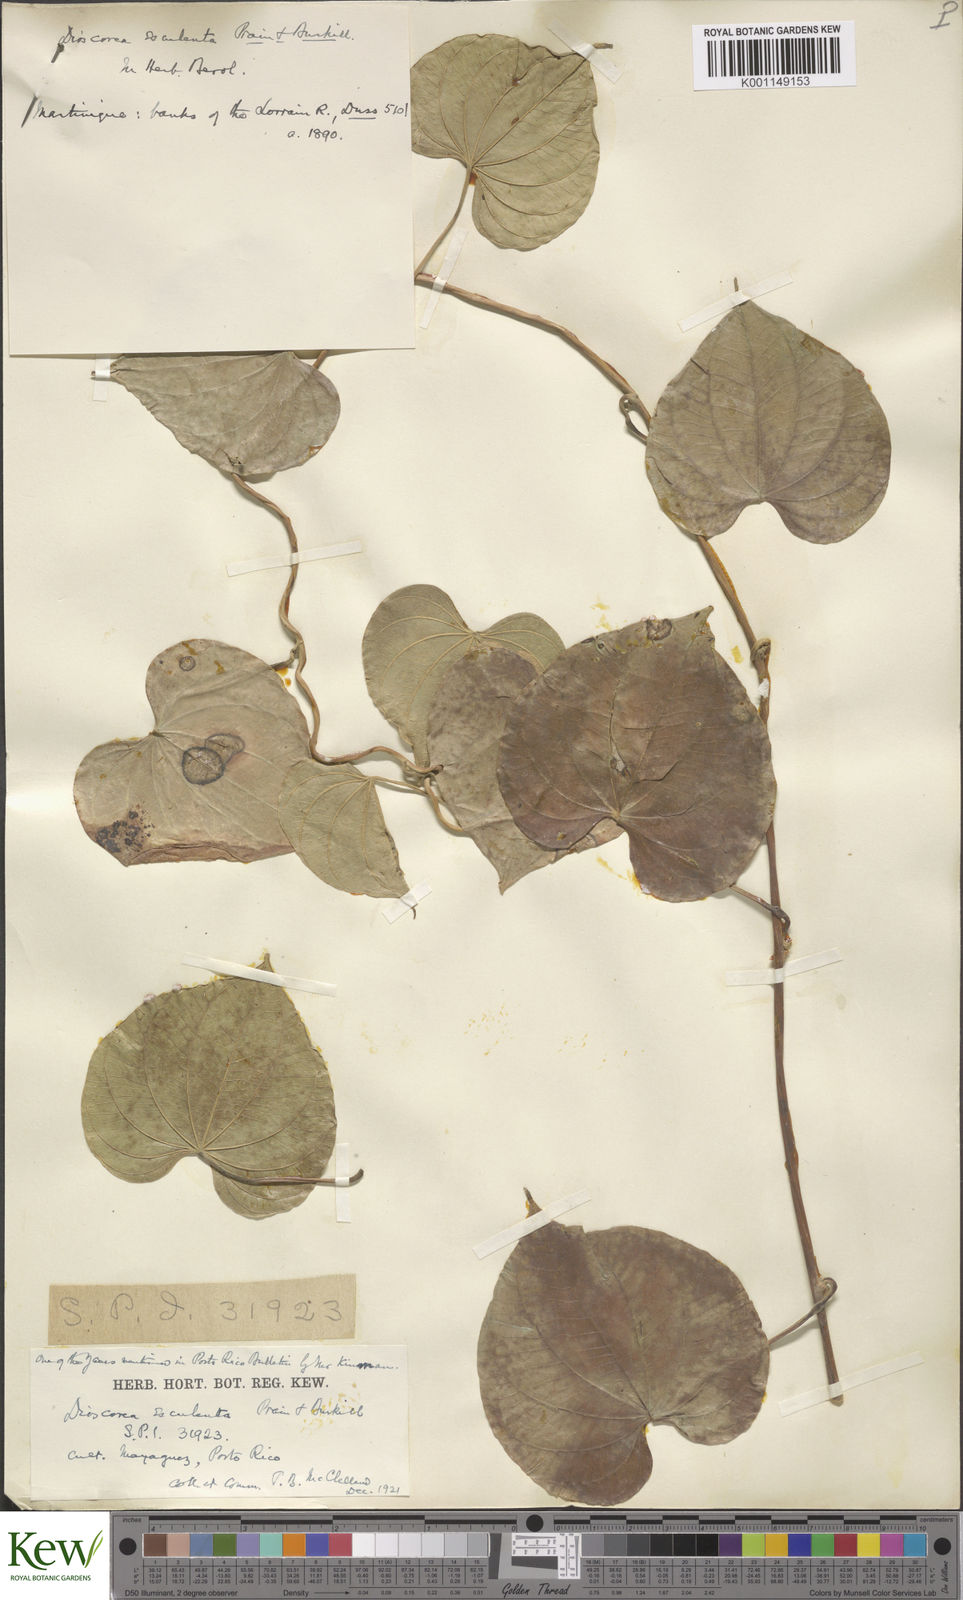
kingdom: Plantae
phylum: Tracheophyta
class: Liliopsida
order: Dioscoreales
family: Dioscoreaceae
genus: Dioscorea
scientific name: Dioscorea esculenta
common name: Chinese yam
